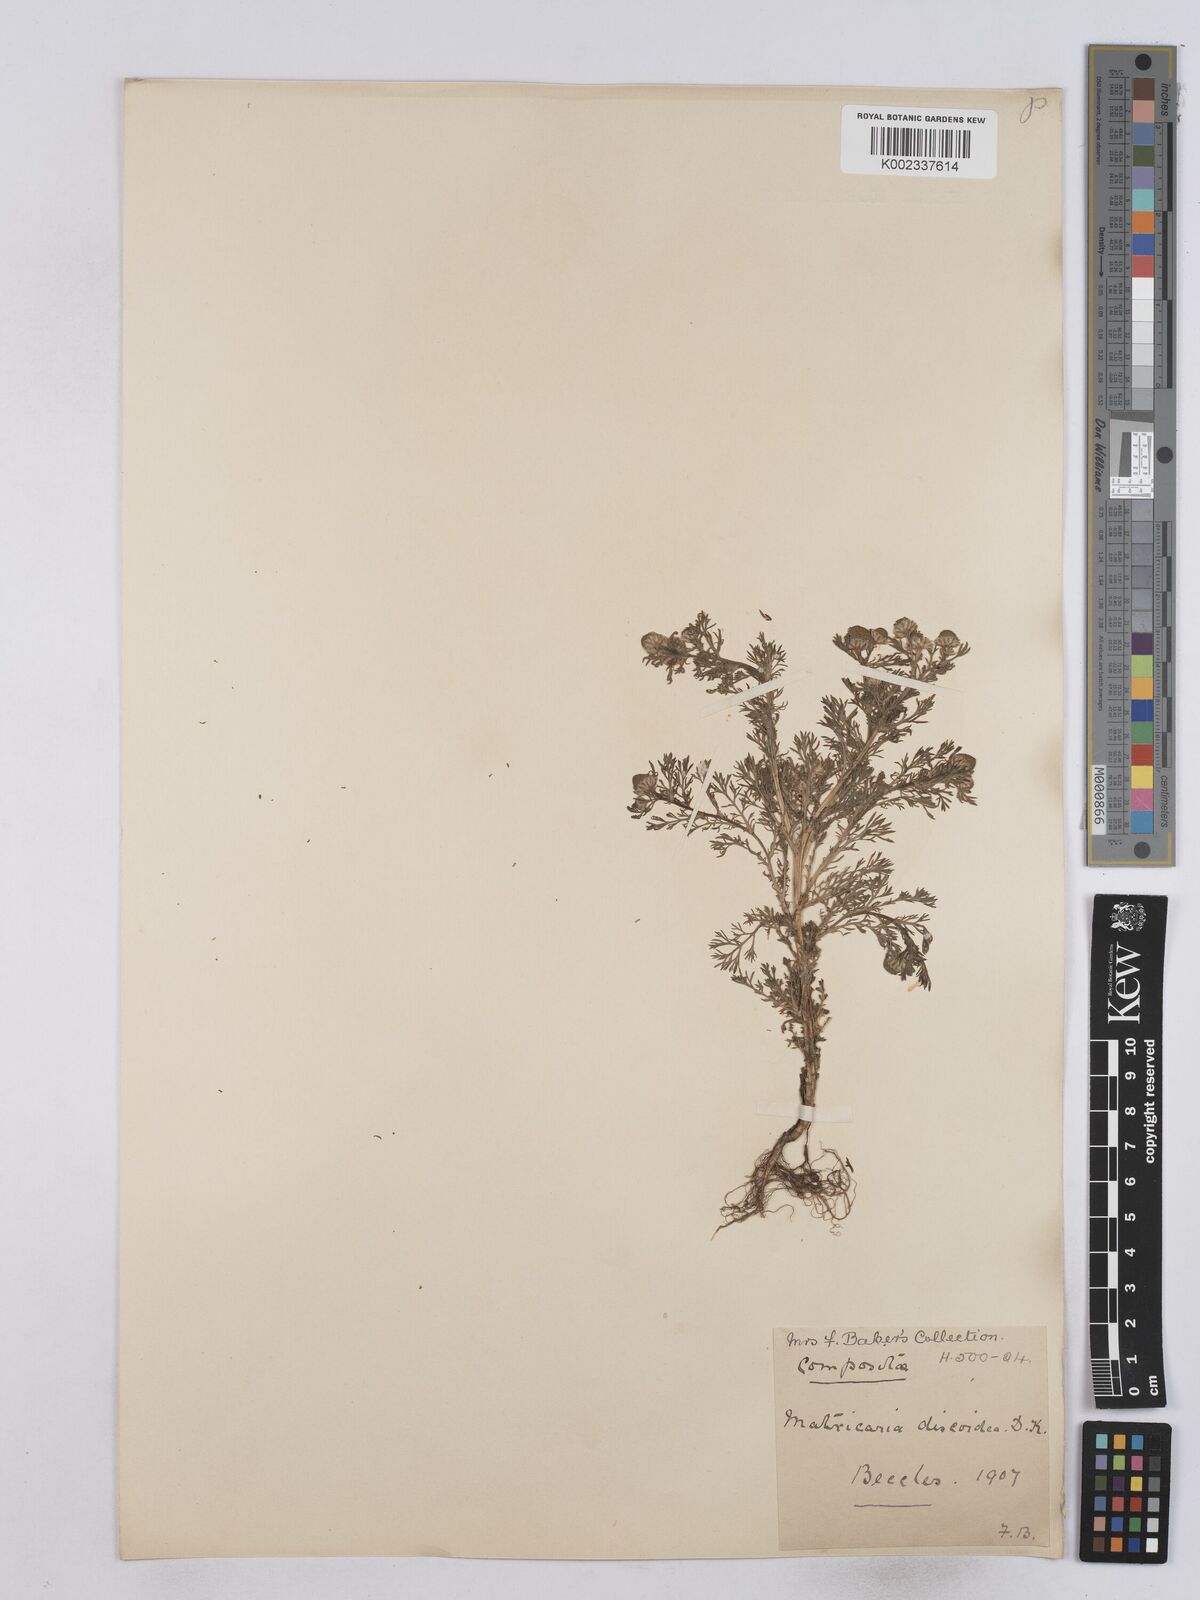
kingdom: Plantae
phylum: Tracheophyta
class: Magnoliopsida
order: Asterales
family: Asteraceae
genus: Matricaria
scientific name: Matricaria discoidea
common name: Disc mayweed
